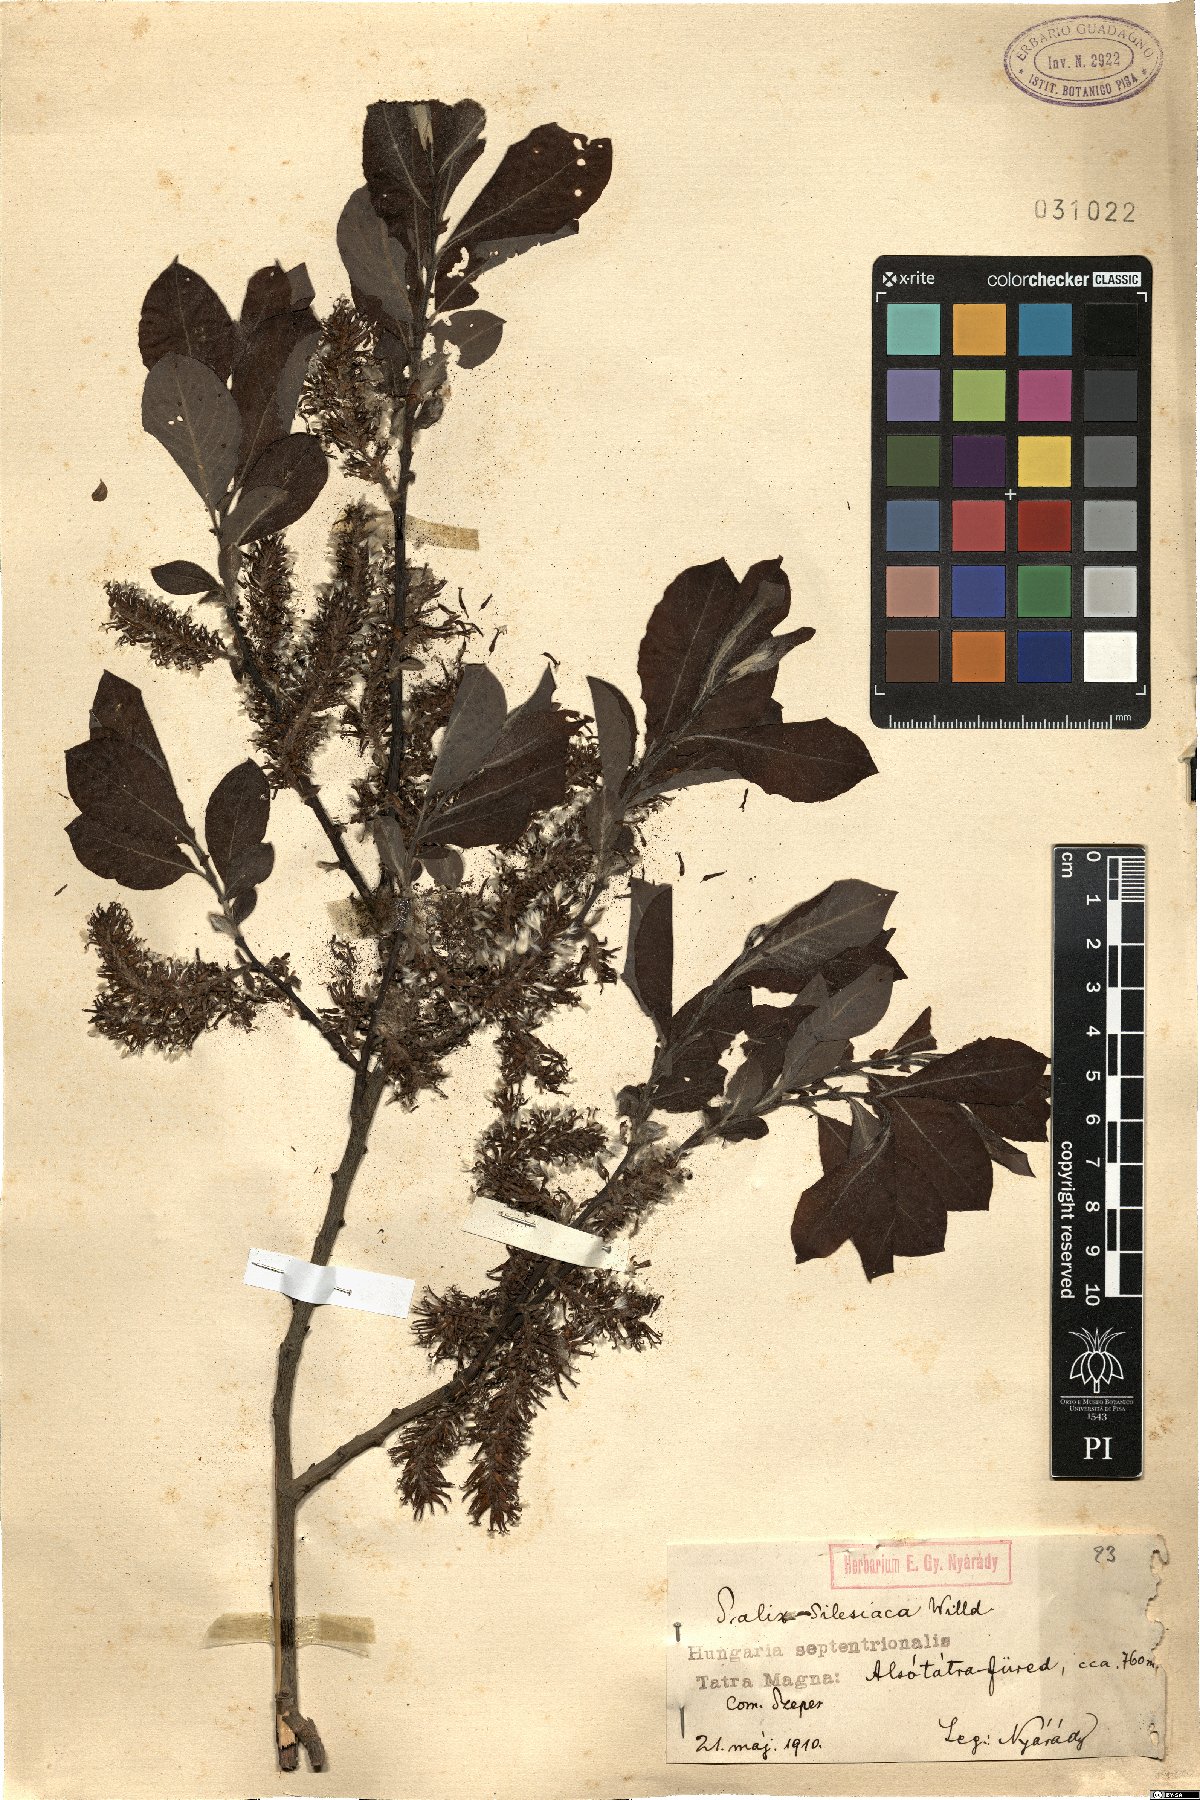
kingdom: Plantae
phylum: Tracheophyta
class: Magnoliopsida
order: Malpighiales
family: Salicaceae
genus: Salix
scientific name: Salix silesiaca
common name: Silesian willow
